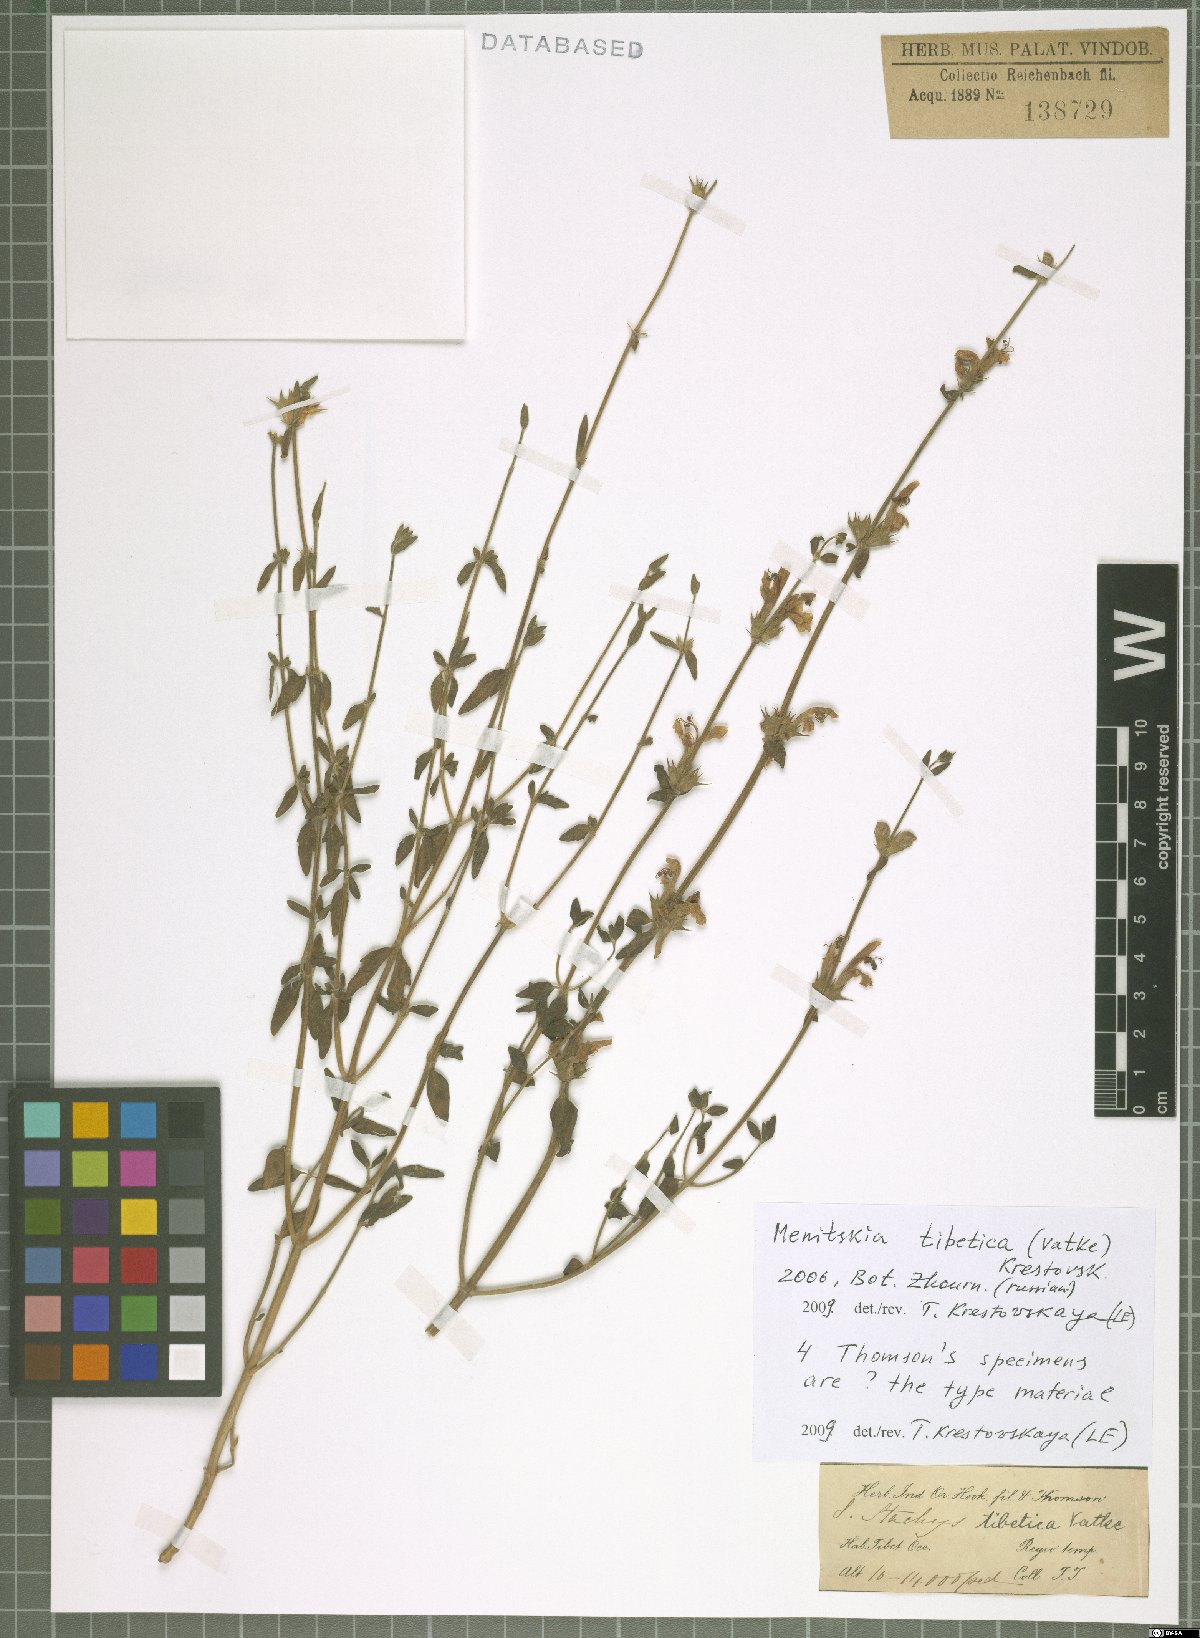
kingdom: Plantae
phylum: Tracheophyta
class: Magnoliopsida
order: Lamiales
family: Lamiaceae
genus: Eriophyton
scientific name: Eriophyton tibeticum
